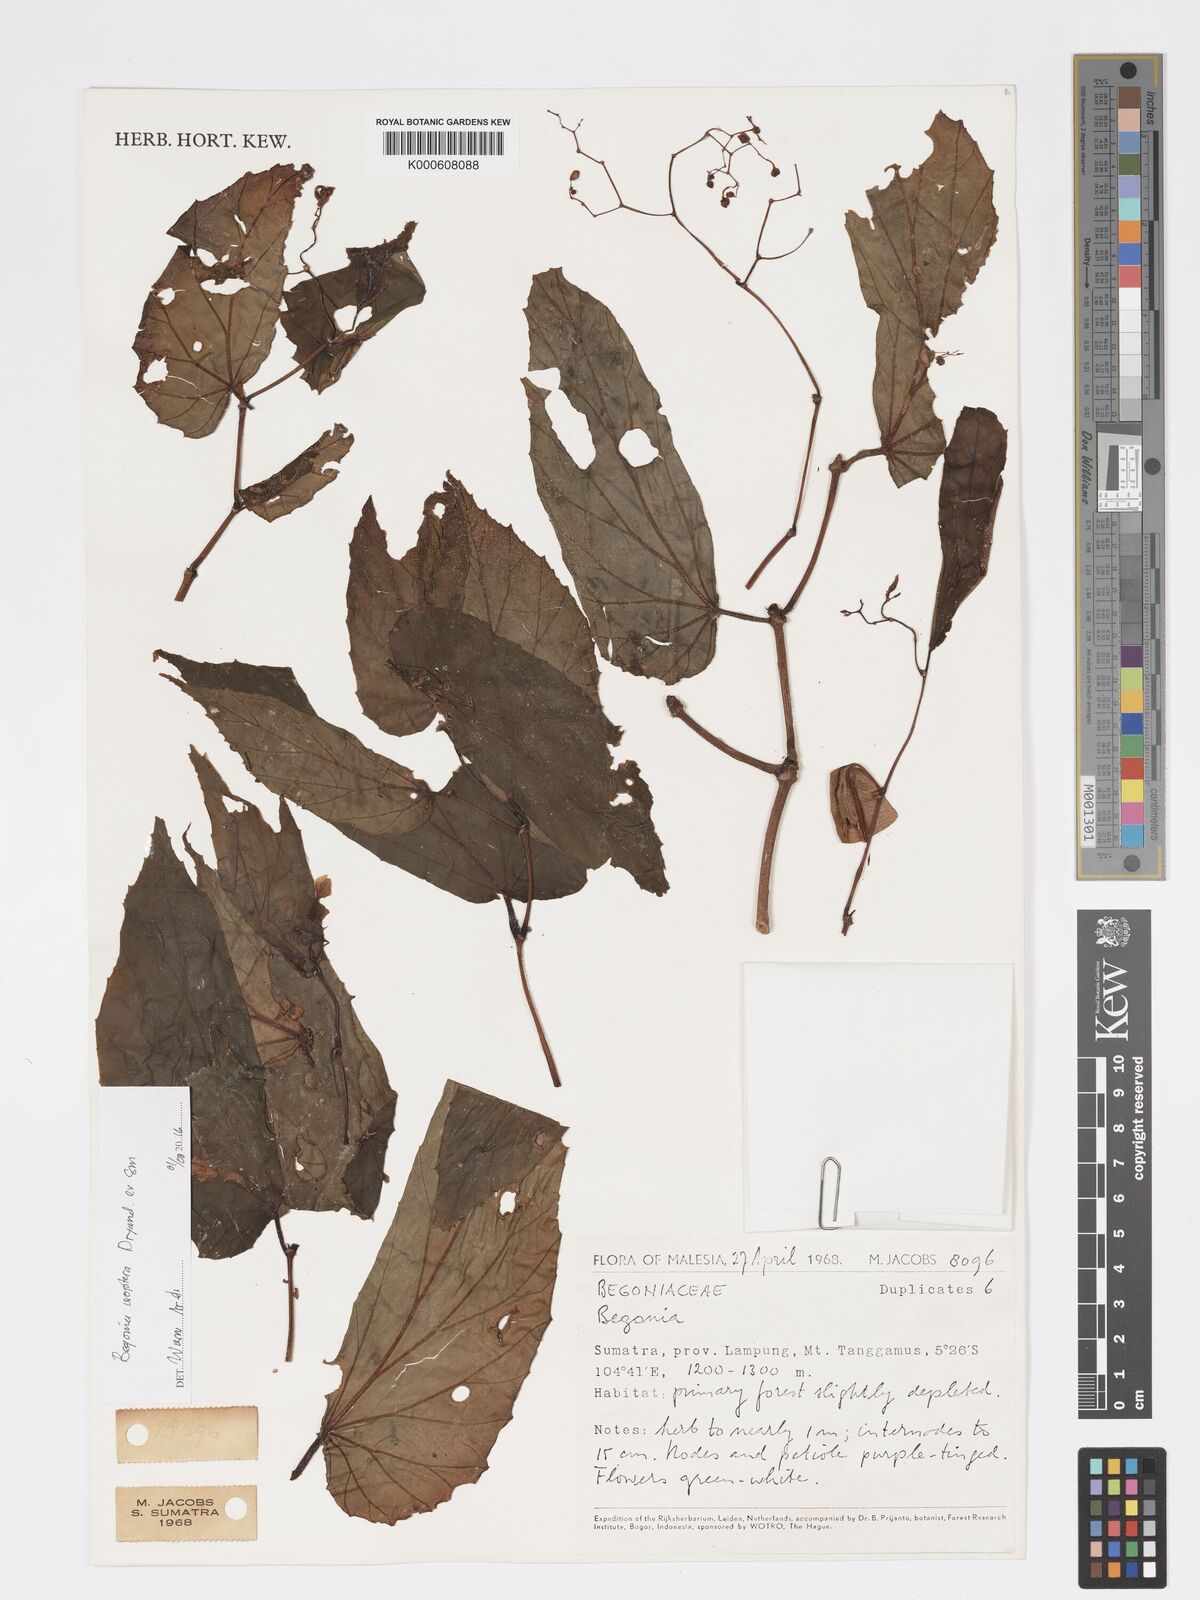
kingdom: Plantae
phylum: Tracheophyta
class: Magnoliopsida
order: Cucurbitales
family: Begoniaceae
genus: Begonia
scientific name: Begonia
